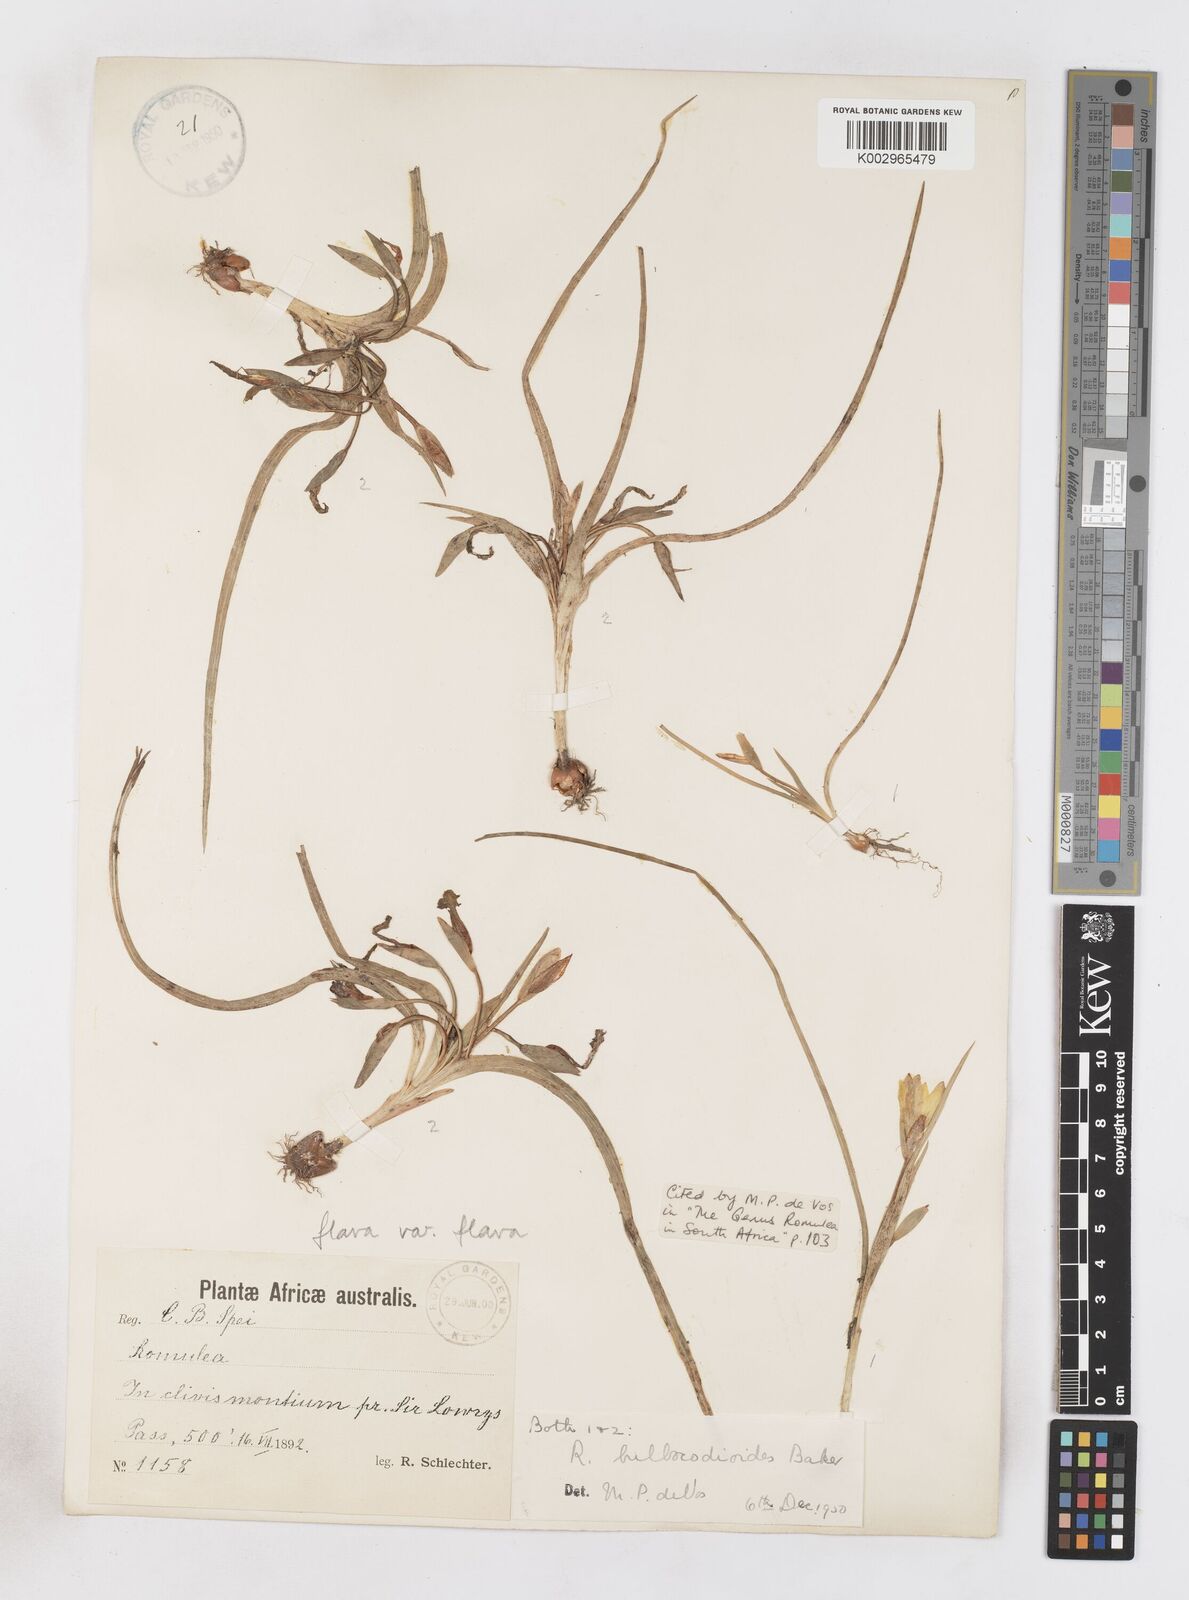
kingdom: Plantae
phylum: Tracheophyta
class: Liliopsida
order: Asparagales
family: Iridaceae
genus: Romulea
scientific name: Romulea flava
